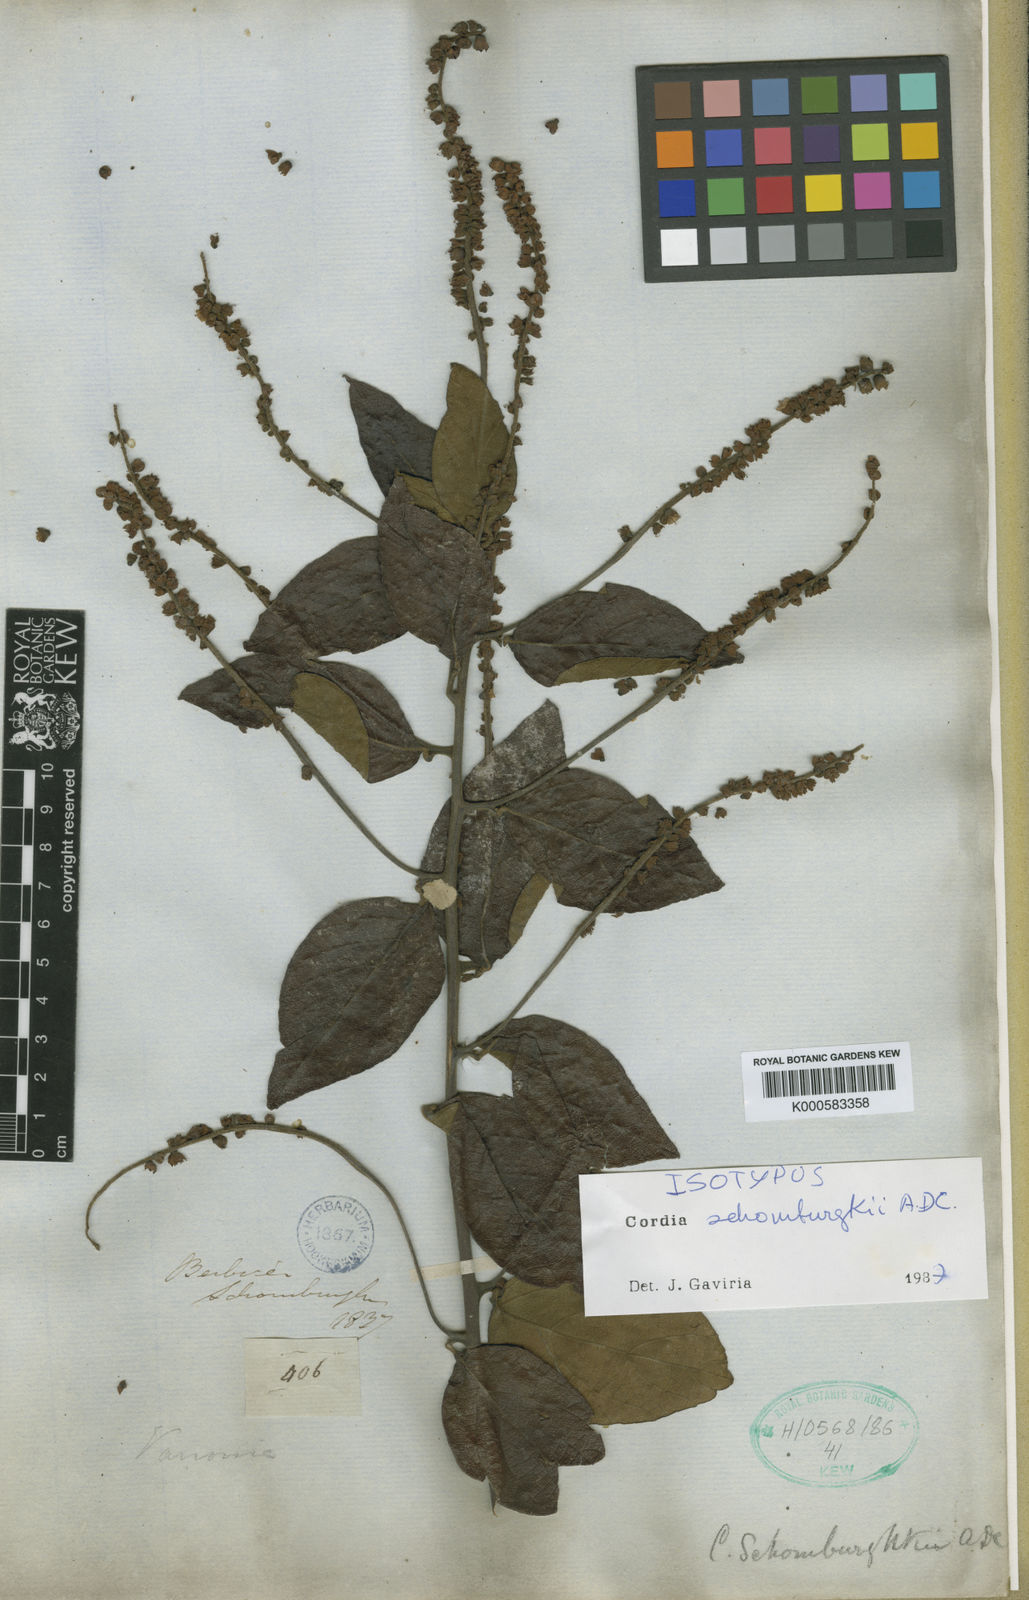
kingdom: Plantae
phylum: Tracheophyta
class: Magnoliopsida
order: Boraginales
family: Cordiaceae
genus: Varronia
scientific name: Varronia schomburgkii
